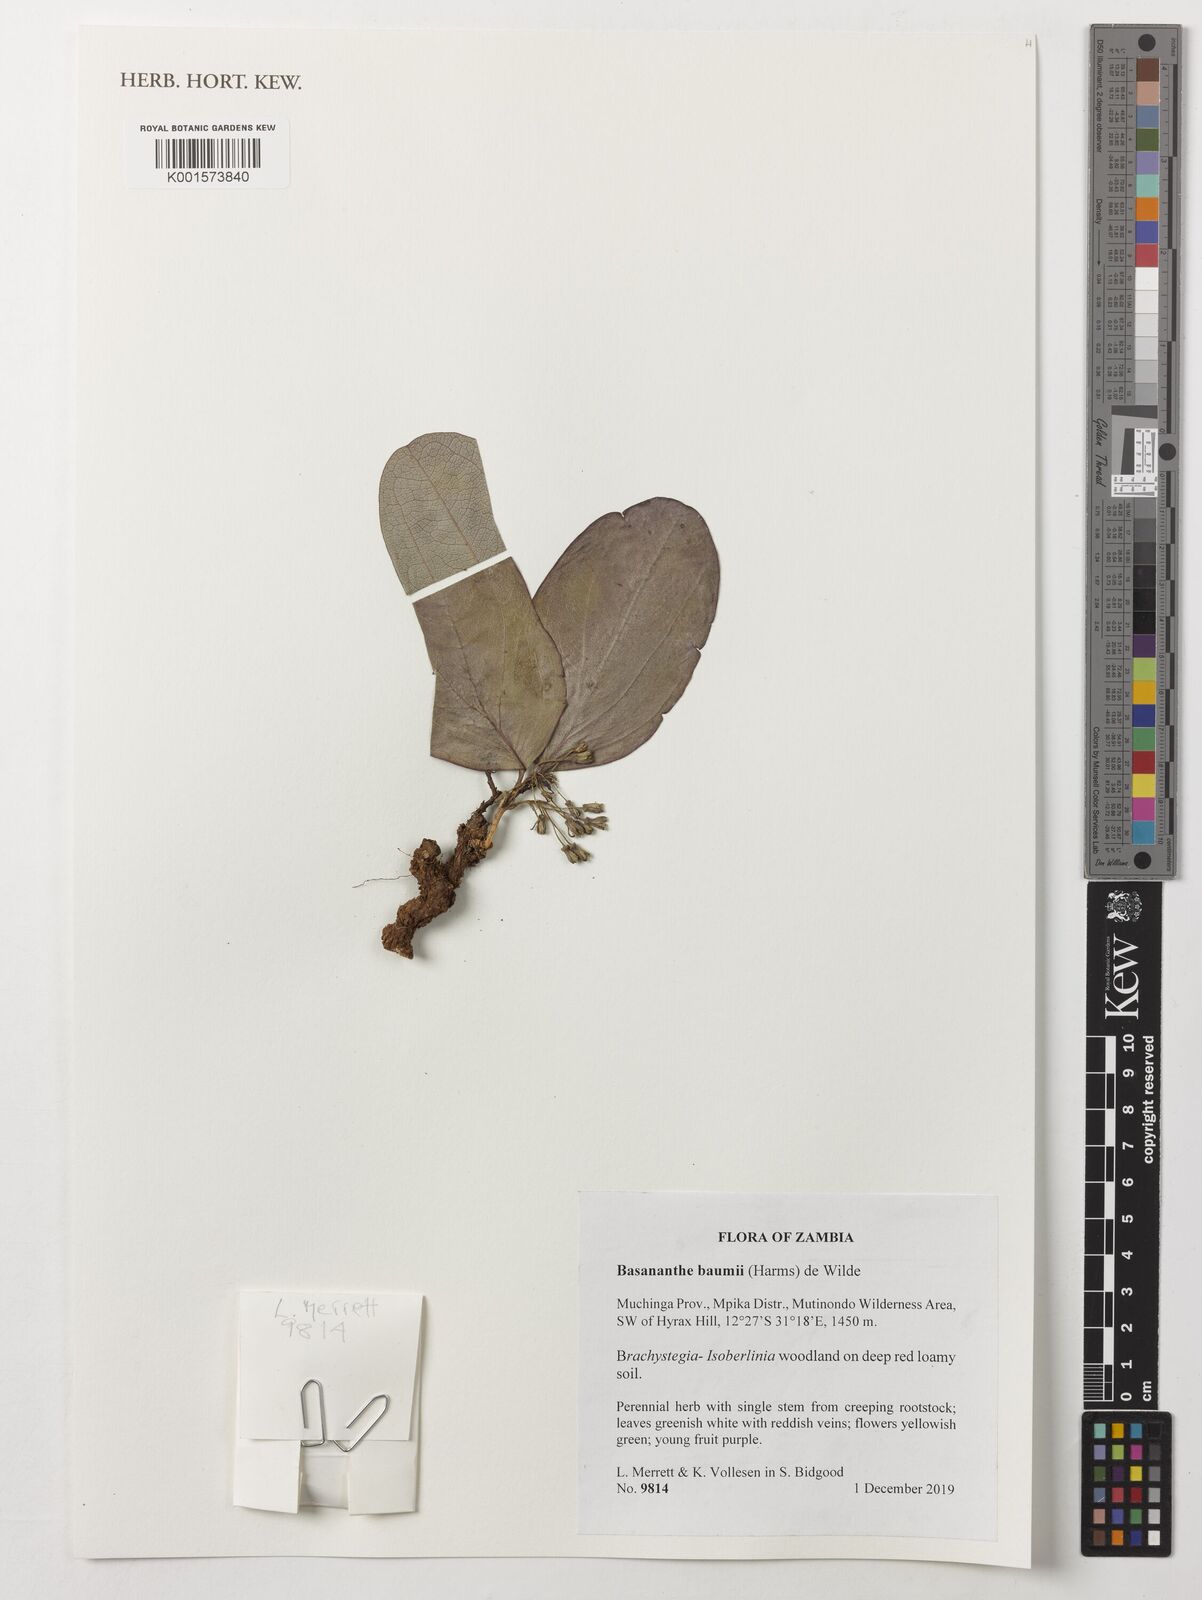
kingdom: Plantae
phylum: Tracheophyta
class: Magnoliopsida
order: Malpighiales
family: Passifloraceae
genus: Basananthe
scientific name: Basananthe baumii
